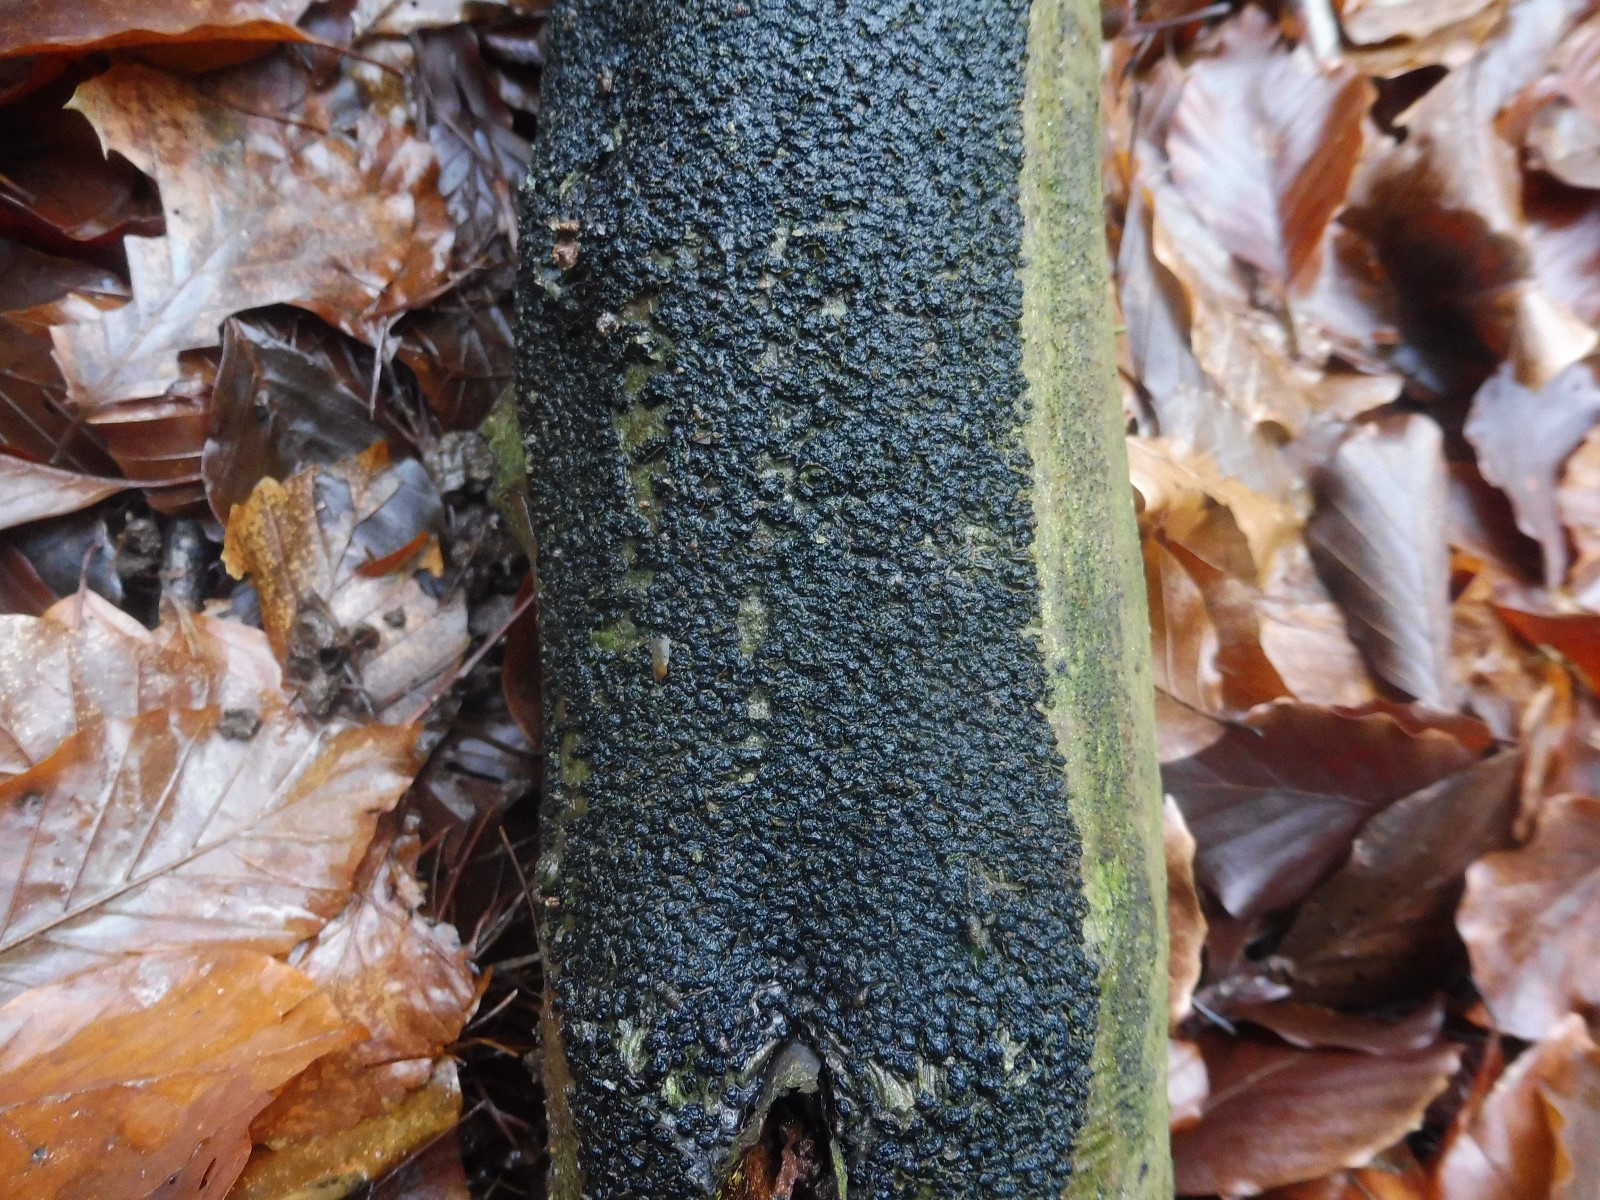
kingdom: Fungi
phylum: Ascomycota
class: Sordariomycetes
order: Xylariales
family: Melogrammataceae
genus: Melogramma
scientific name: Melogramma spiniferum
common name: bøgefod-kulhals
